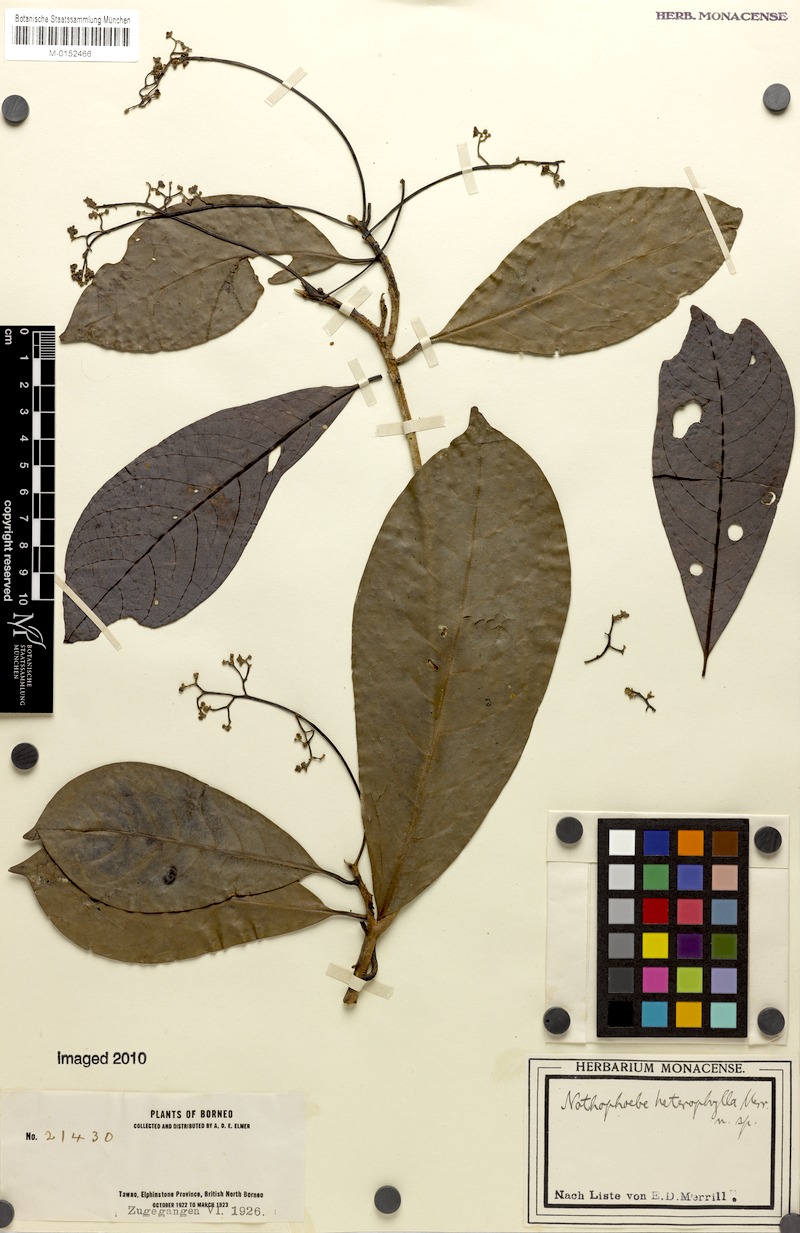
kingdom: Plantae
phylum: Tracheophyta
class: Magnoliopsida
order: Laurales
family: Lauraceae
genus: Nothaphoebe
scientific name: Nothaphoebe heterophylla
